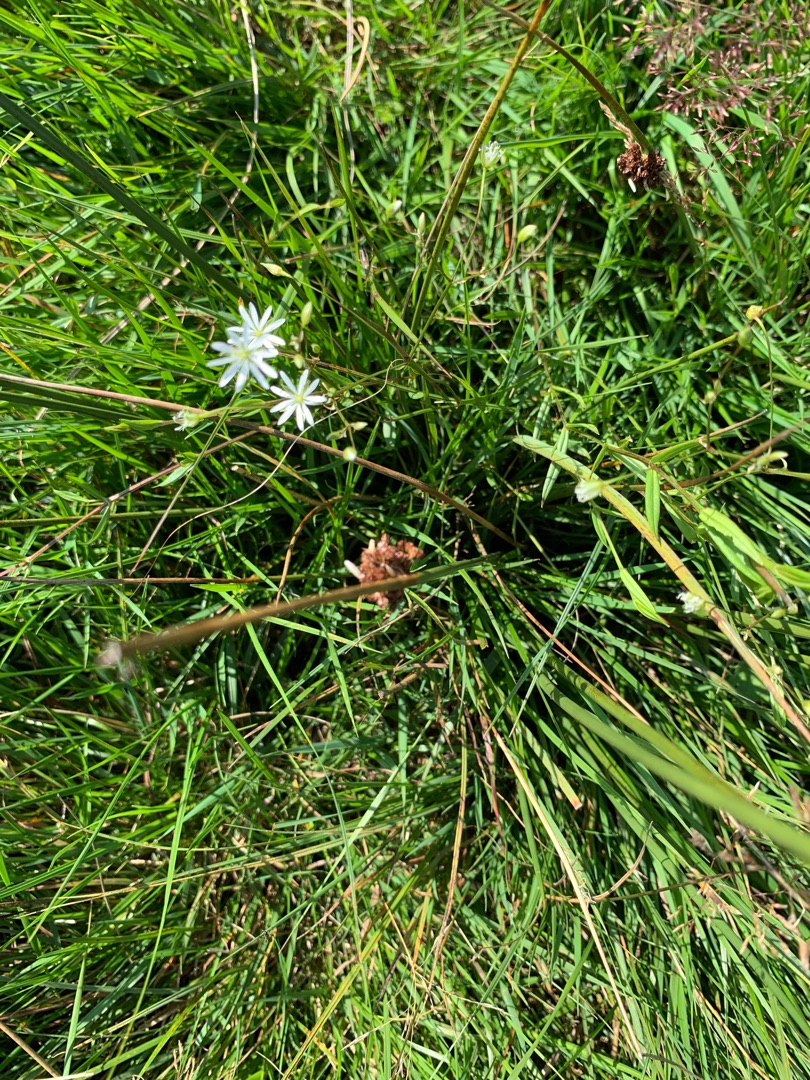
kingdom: Plantae
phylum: Tracheophyta
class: Magnoliopsida
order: Caryophyllales
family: Caryophyllaceae
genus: Stellaria
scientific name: Stellaria graminea
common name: Græsbladet fladstjerne
